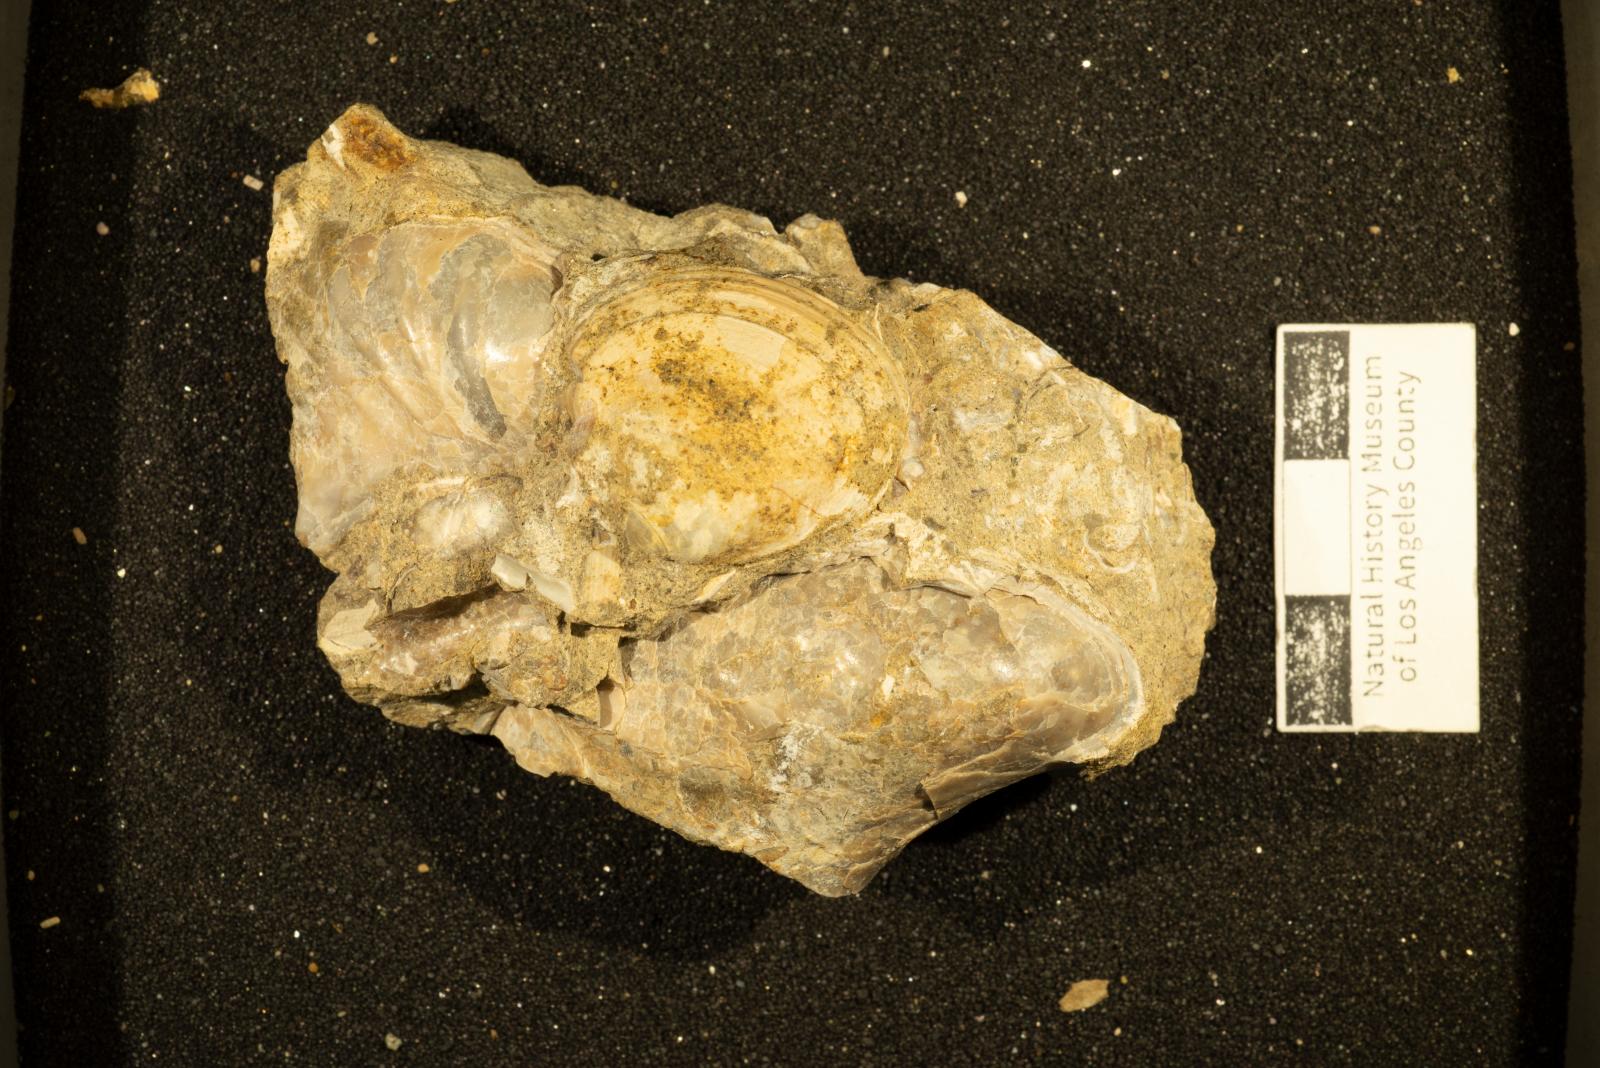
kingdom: Animalia
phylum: Mollusca
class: Scaphopoda
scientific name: Scaphopoda
